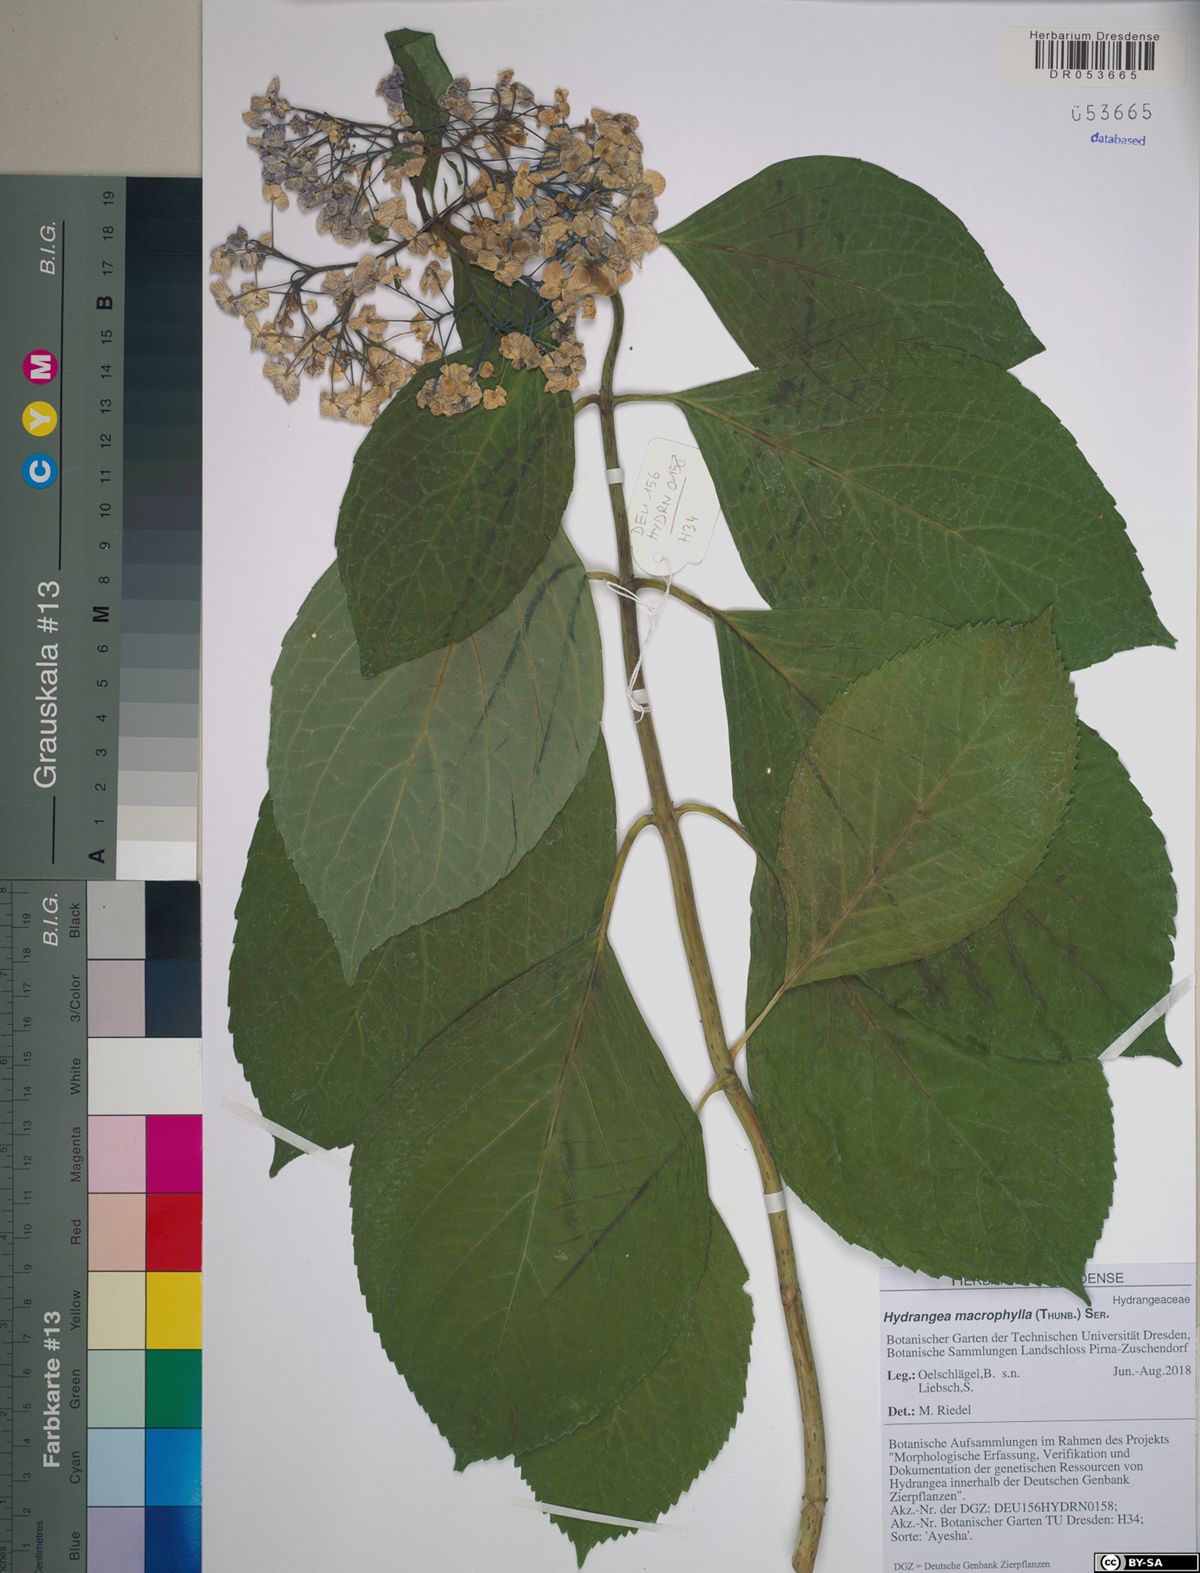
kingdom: Plantae
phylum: Tracheophyta
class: Magnoliopsida
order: Cornales
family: Hydrangeaceae
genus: Hydrangea
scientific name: Hydrangea macrophylla
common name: Hydrangea
